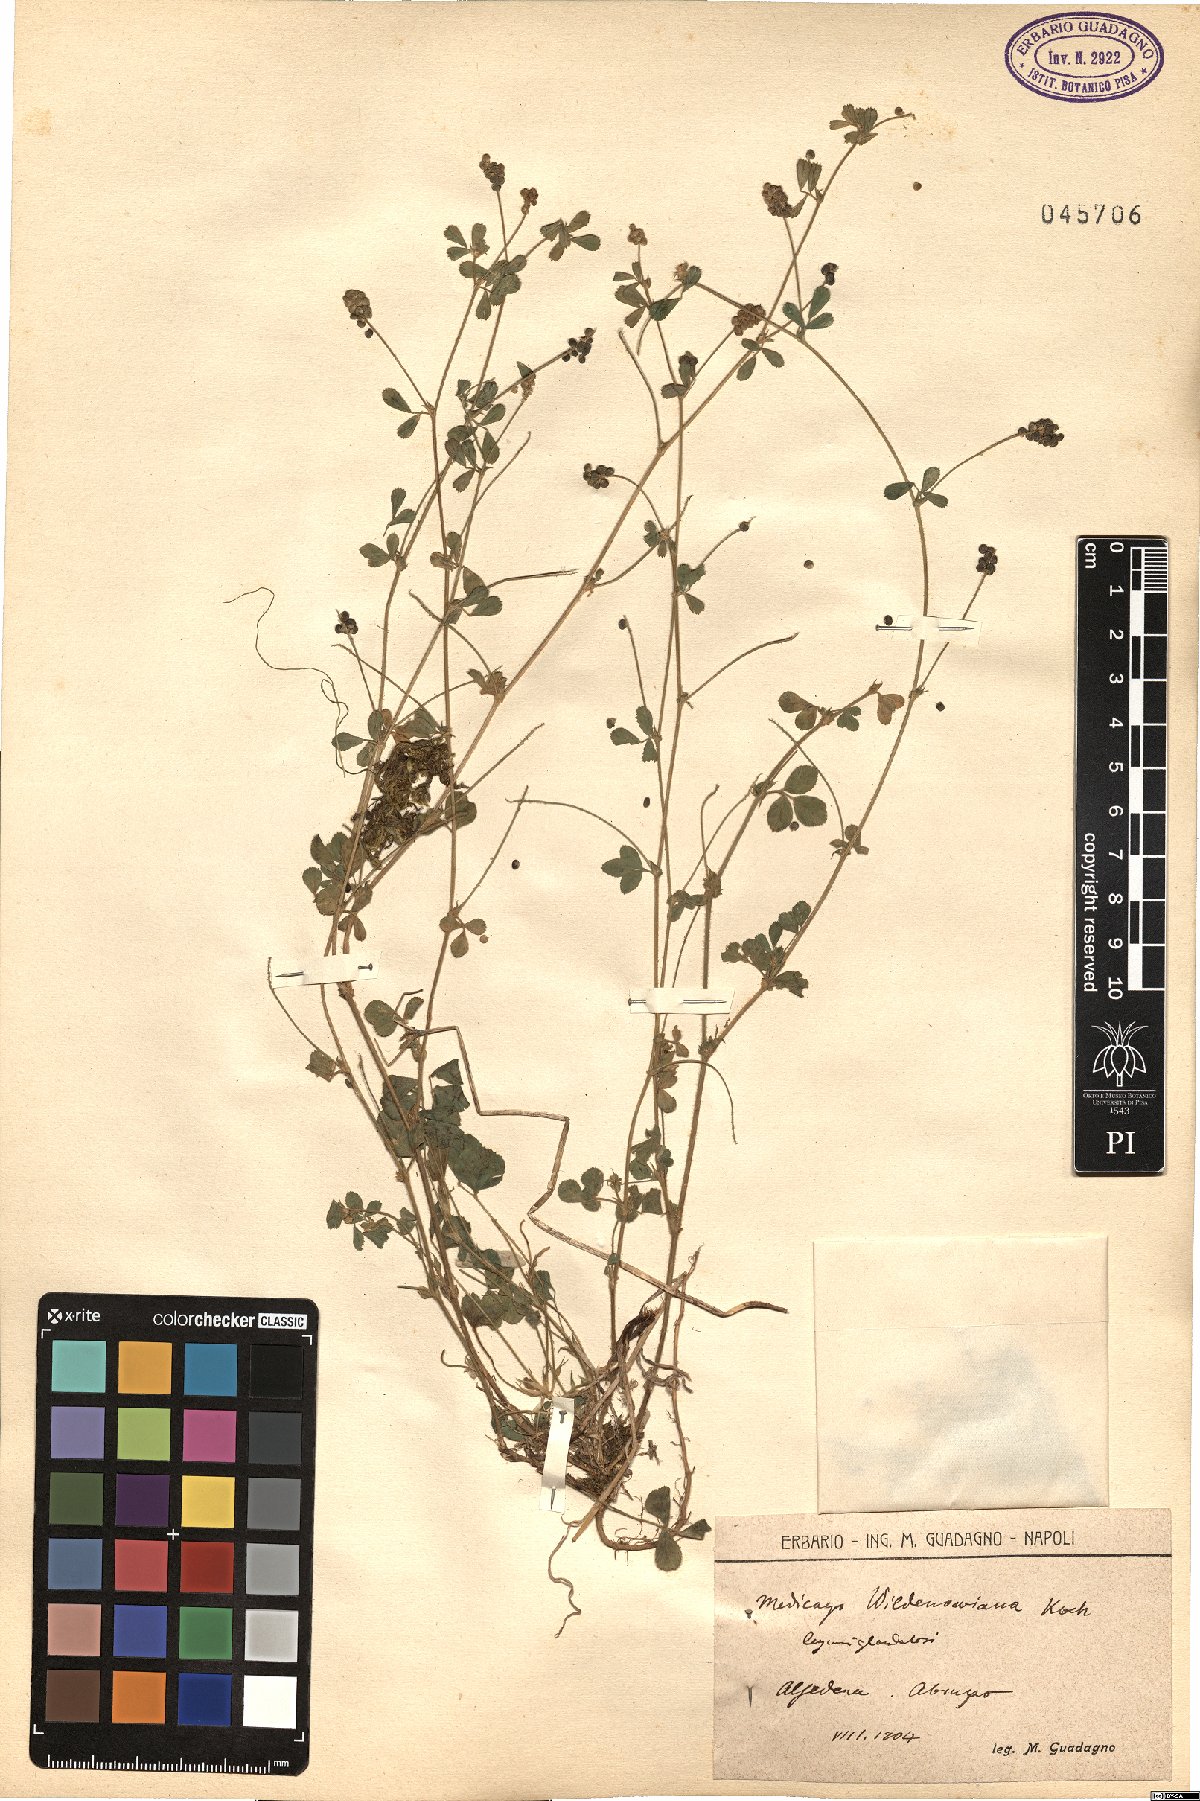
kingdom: Plantae
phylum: Tracheophyta
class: Magnoliopsida
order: Fabales
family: Fabaceae
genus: Medicago
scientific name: Medicago
